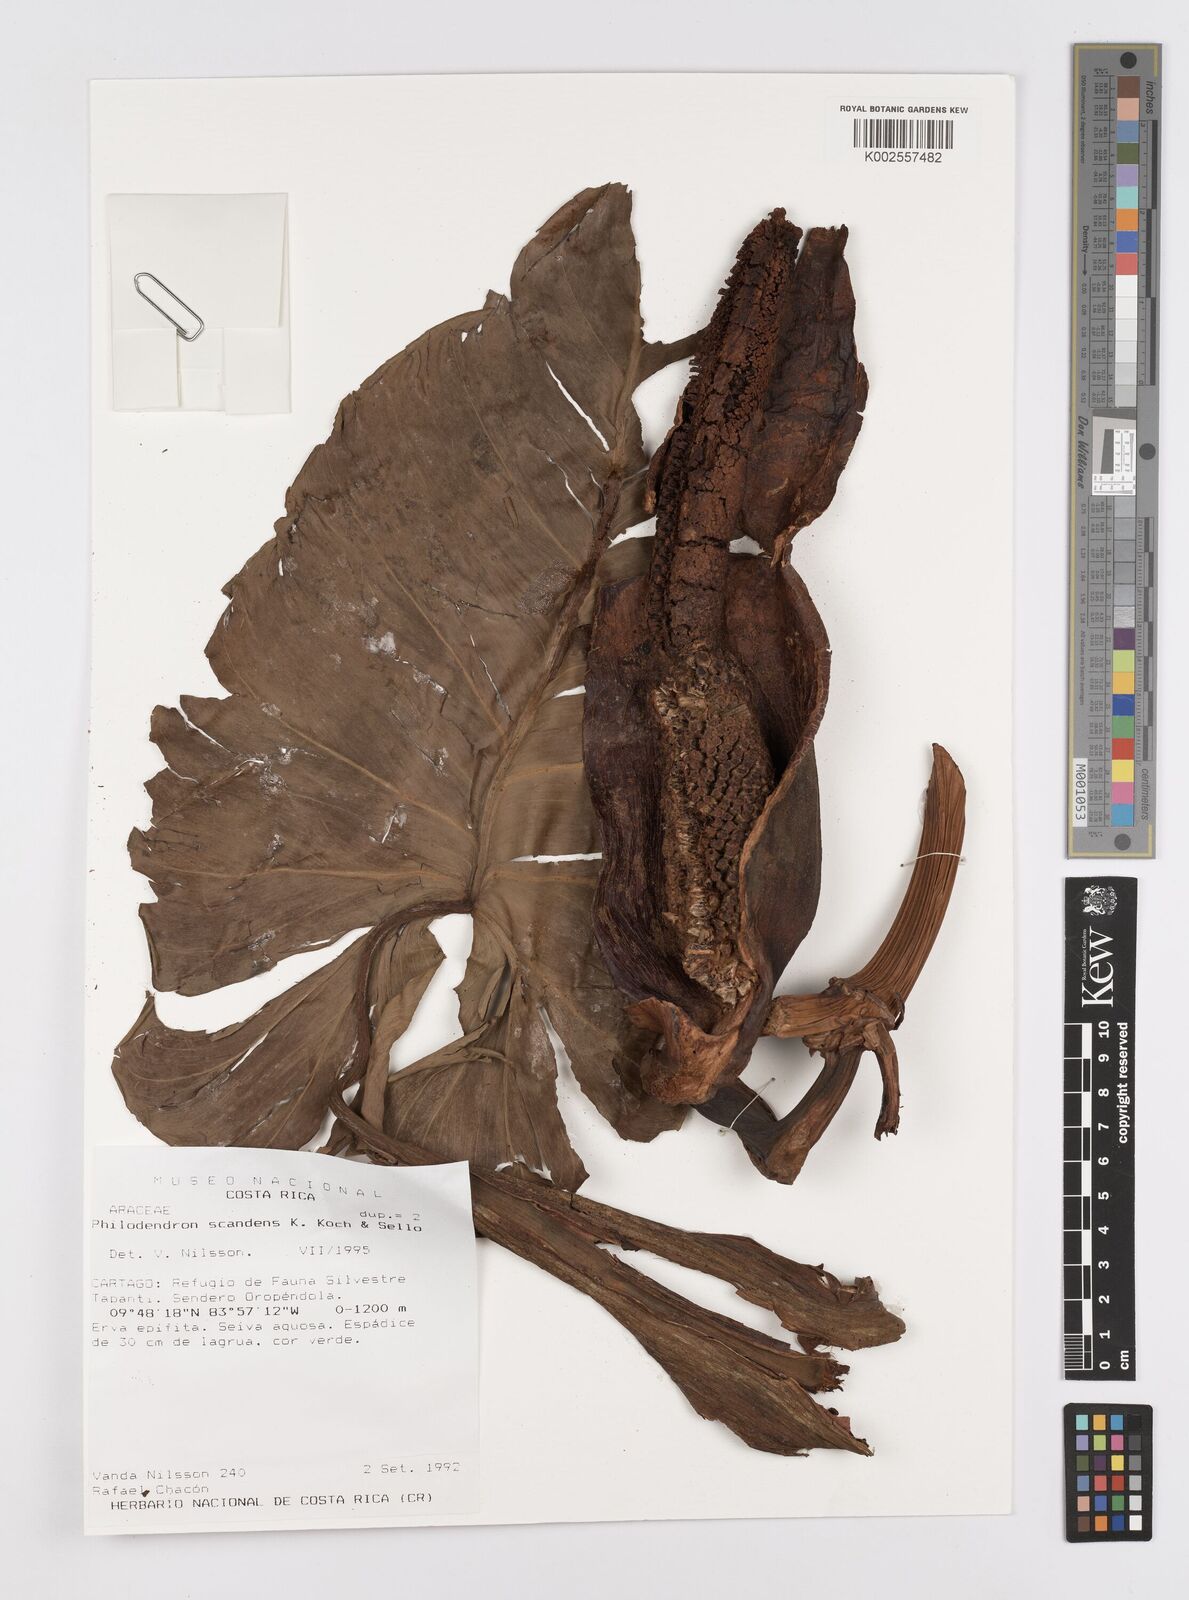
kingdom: Plantae
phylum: Tracheophyta
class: Liliopsida
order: Alismatales
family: Araceae
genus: Philodendron
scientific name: Philodendron hederaceum
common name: Vilevine
